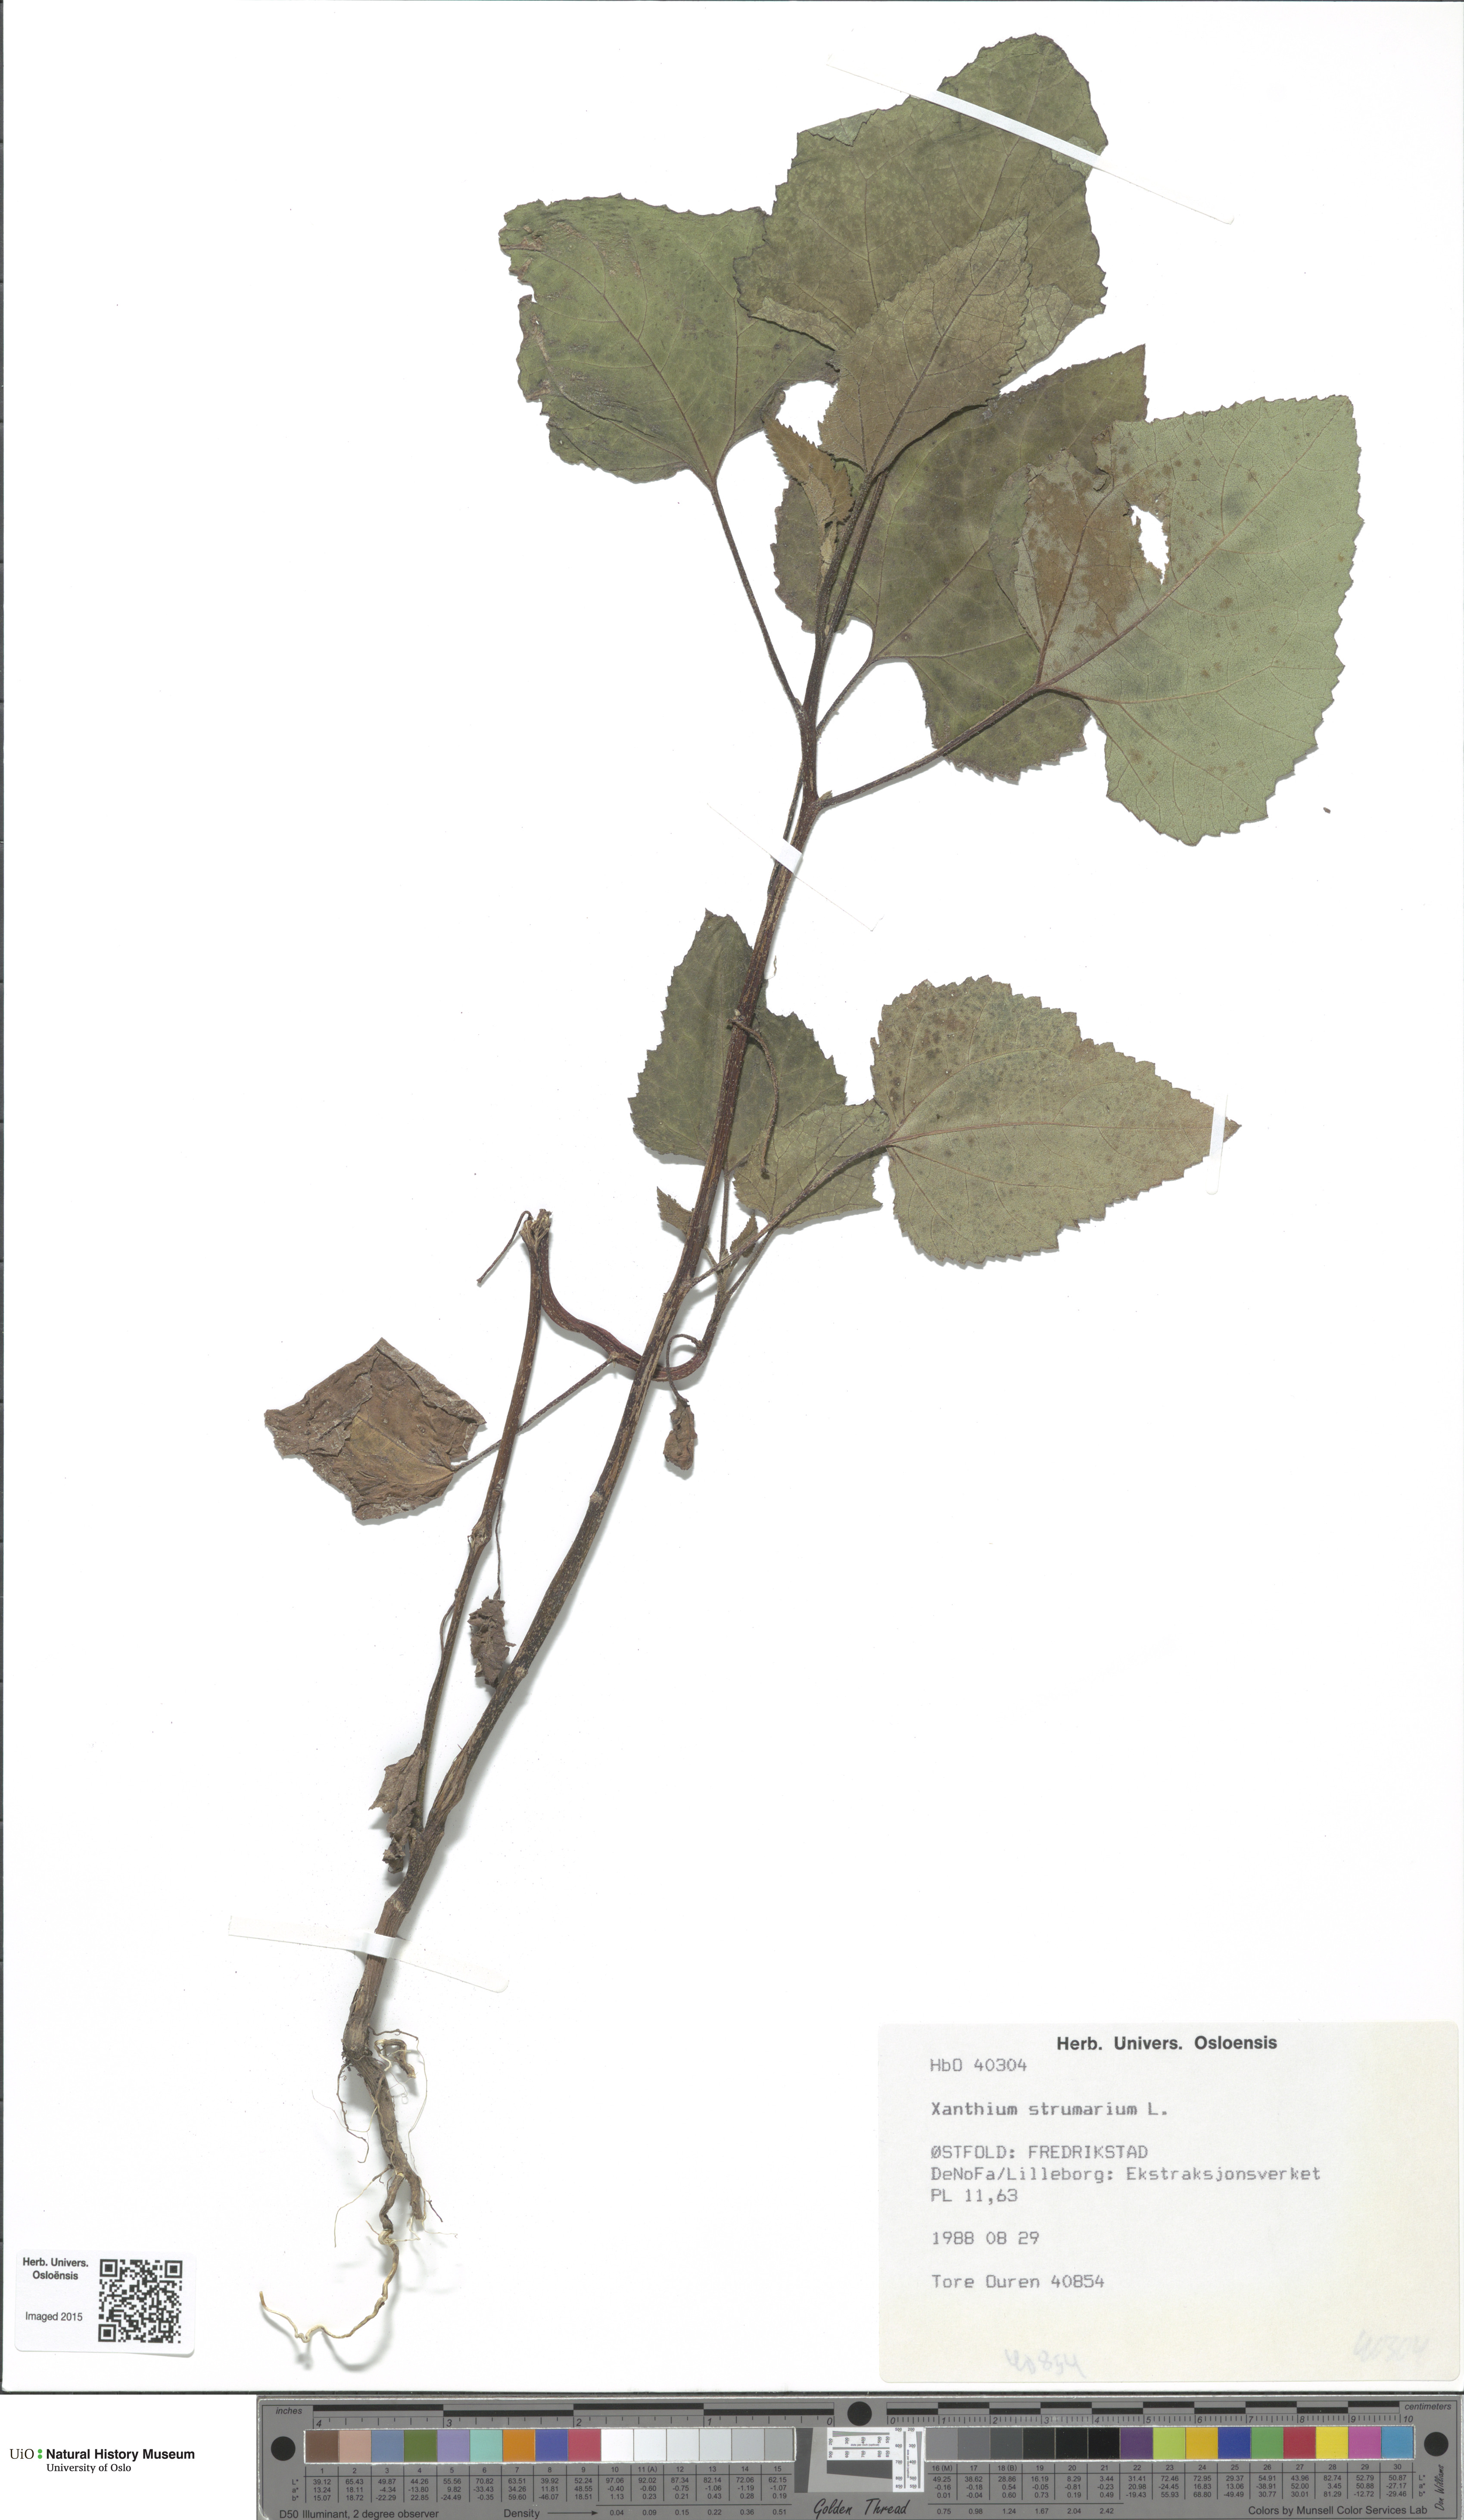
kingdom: Plantae
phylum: Tracheophyta
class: Magnoliopsida
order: Asterales
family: Asteraceae
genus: Xanthium
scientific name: Xanthium orientale
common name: Californian burr
